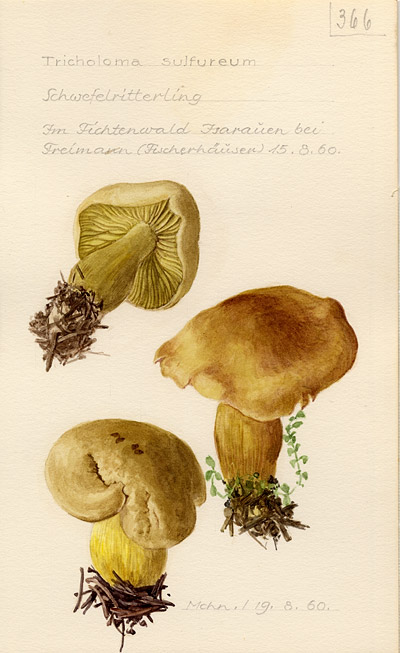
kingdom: Fungi
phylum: Basidiomycota
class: Agaricomycetes
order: Agaricales
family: Tricholomataceae
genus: Tricholoma
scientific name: Tricholoma sulphureum
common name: Stinky knight
